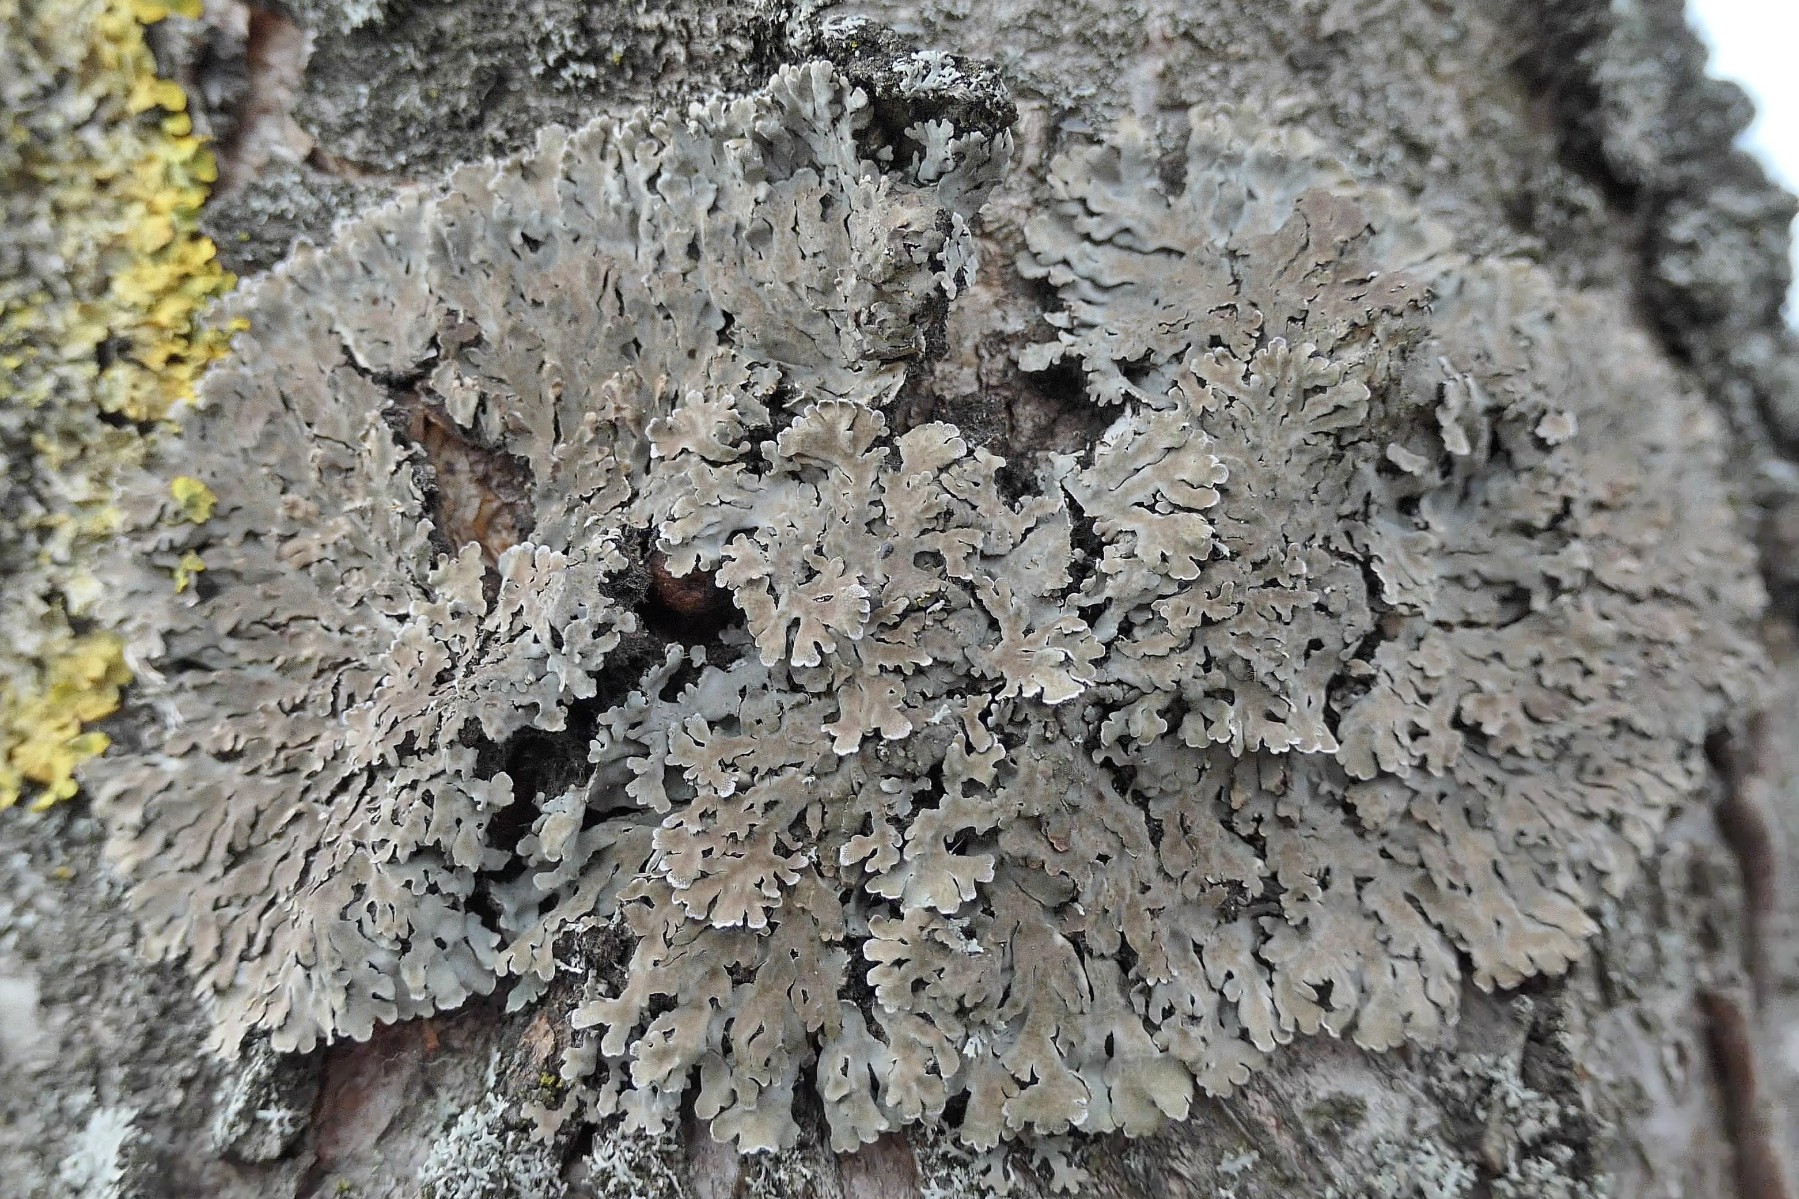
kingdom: Fungi
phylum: Ascomycota
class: Lecanoromycetes
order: Caliciales
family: Physciaceae
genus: Physconia
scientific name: Physconia distorta
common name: pudret dugrosetlav
